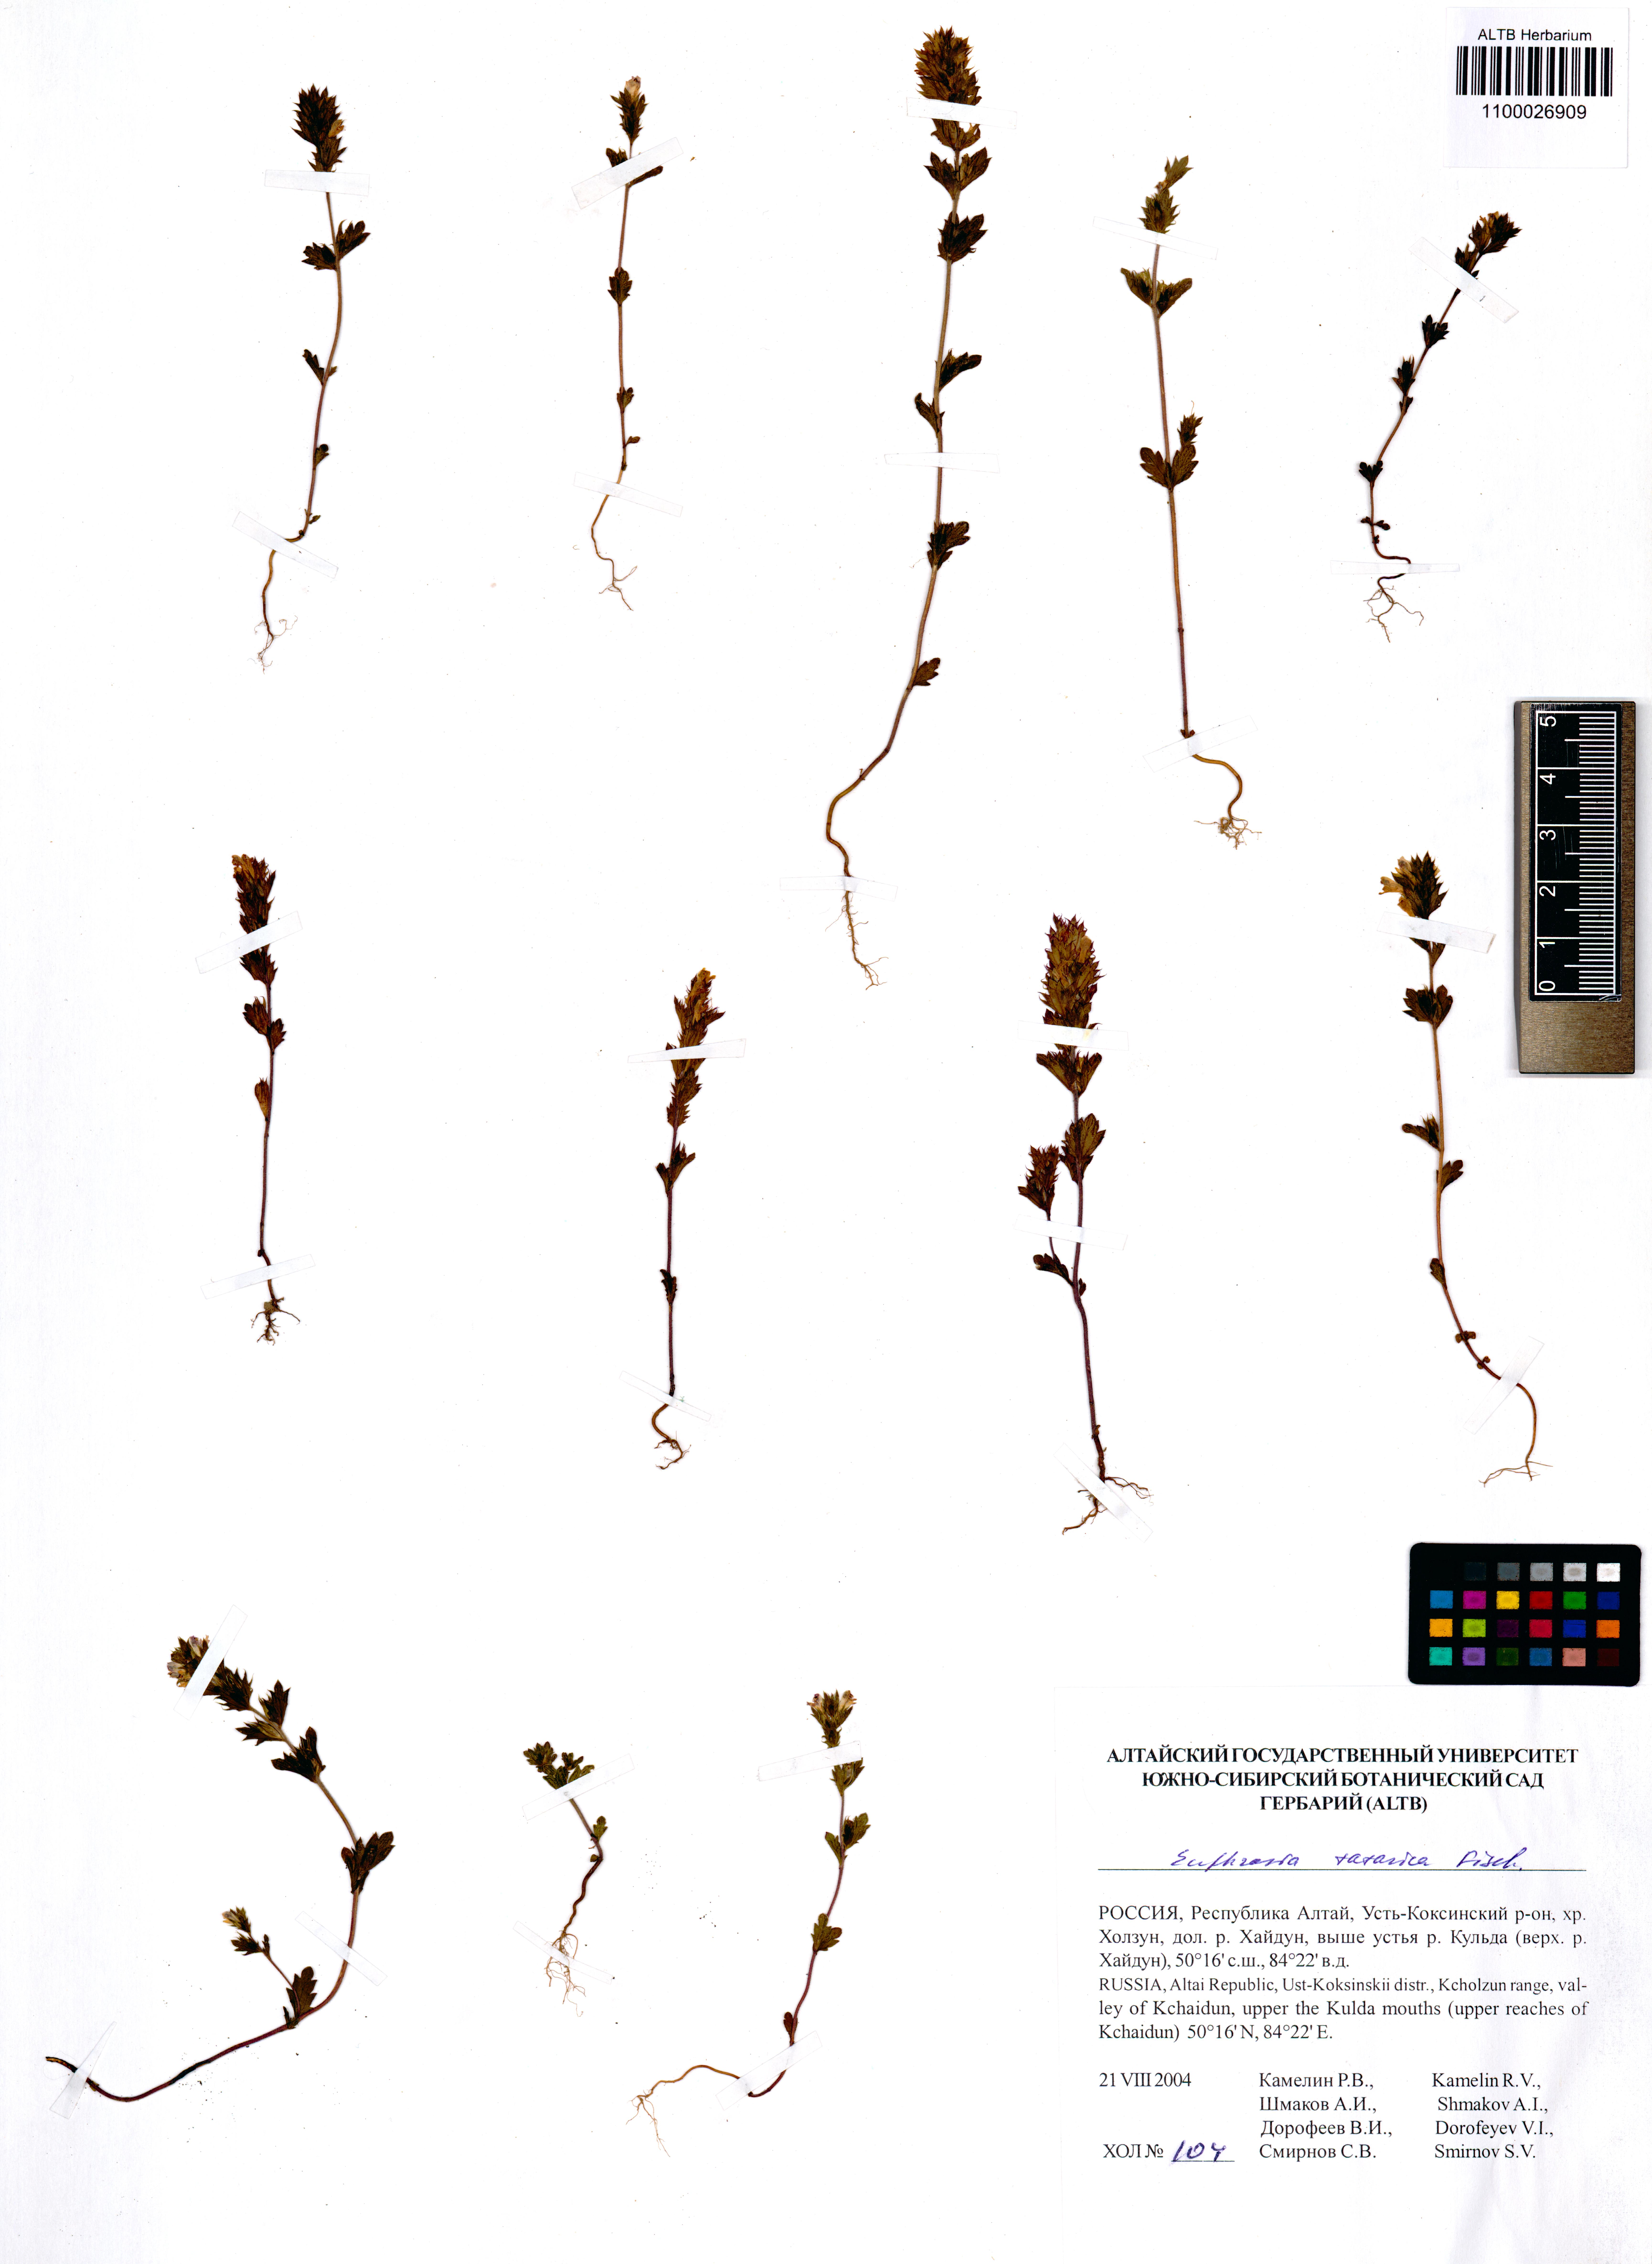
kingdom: Plantae
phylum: Tracheophyta
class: Magnoliopsida
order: Lamiales
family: Orobanchaceae
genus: Euphrasia
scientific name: Euphrasia pectinata
